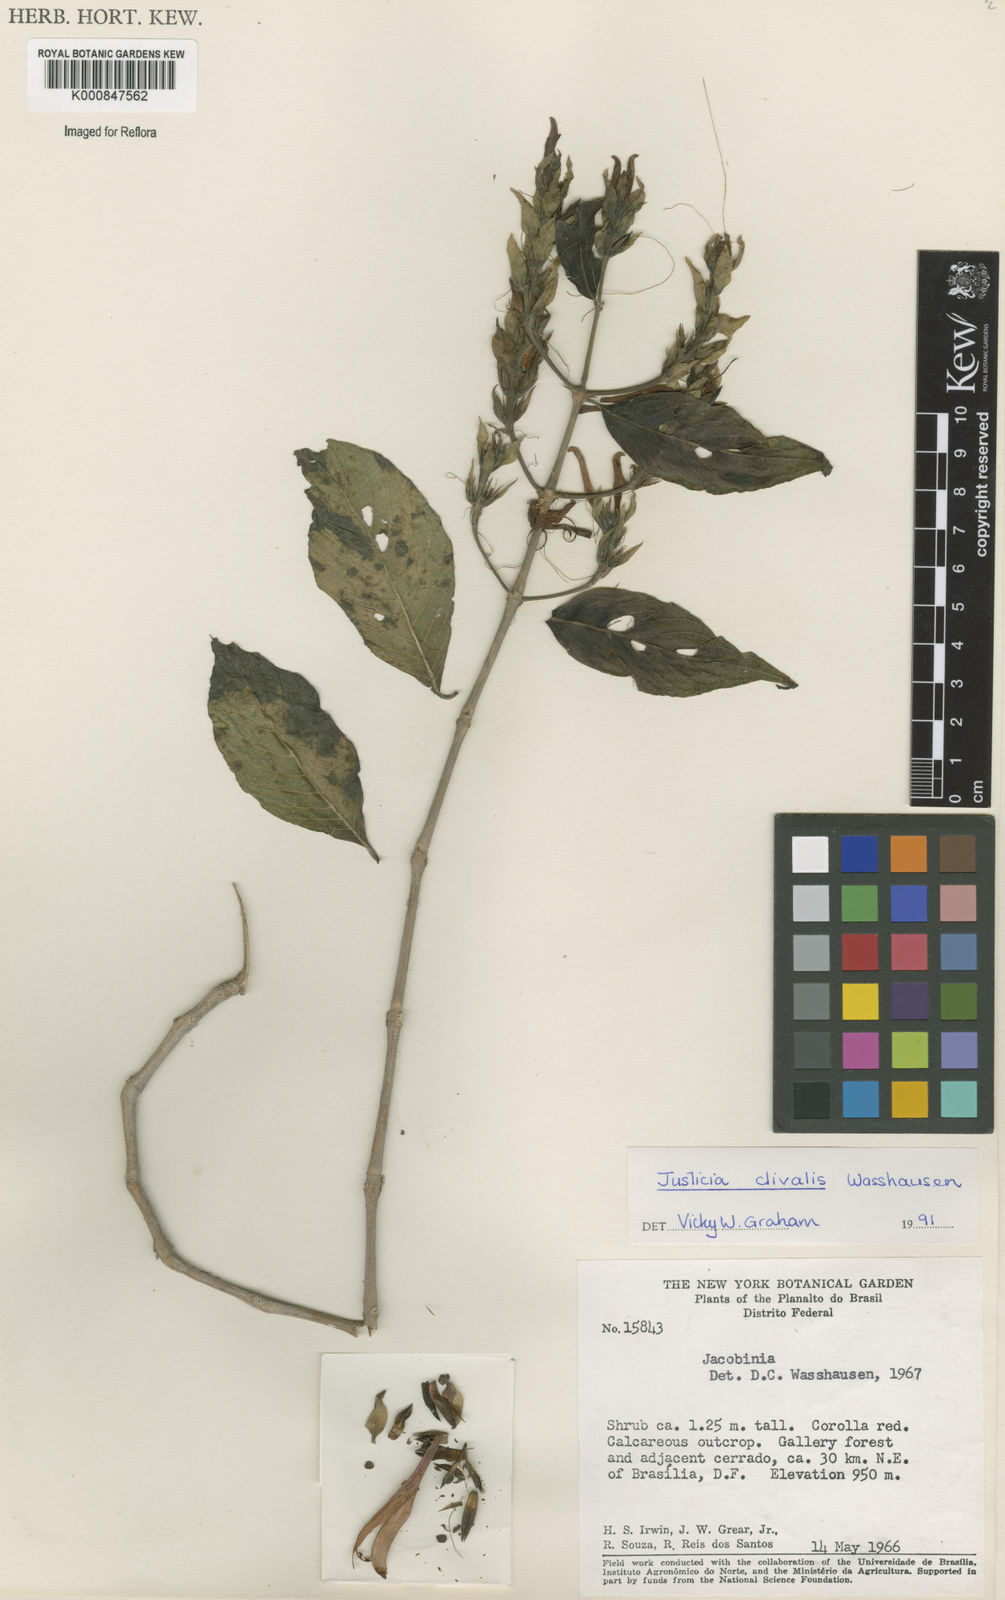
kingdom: Plantae
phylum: Tracheophyta
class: Magnoliopsida
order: Lamiales
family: Acanthaceae
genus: Justicia
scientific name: Justicia clivalis
